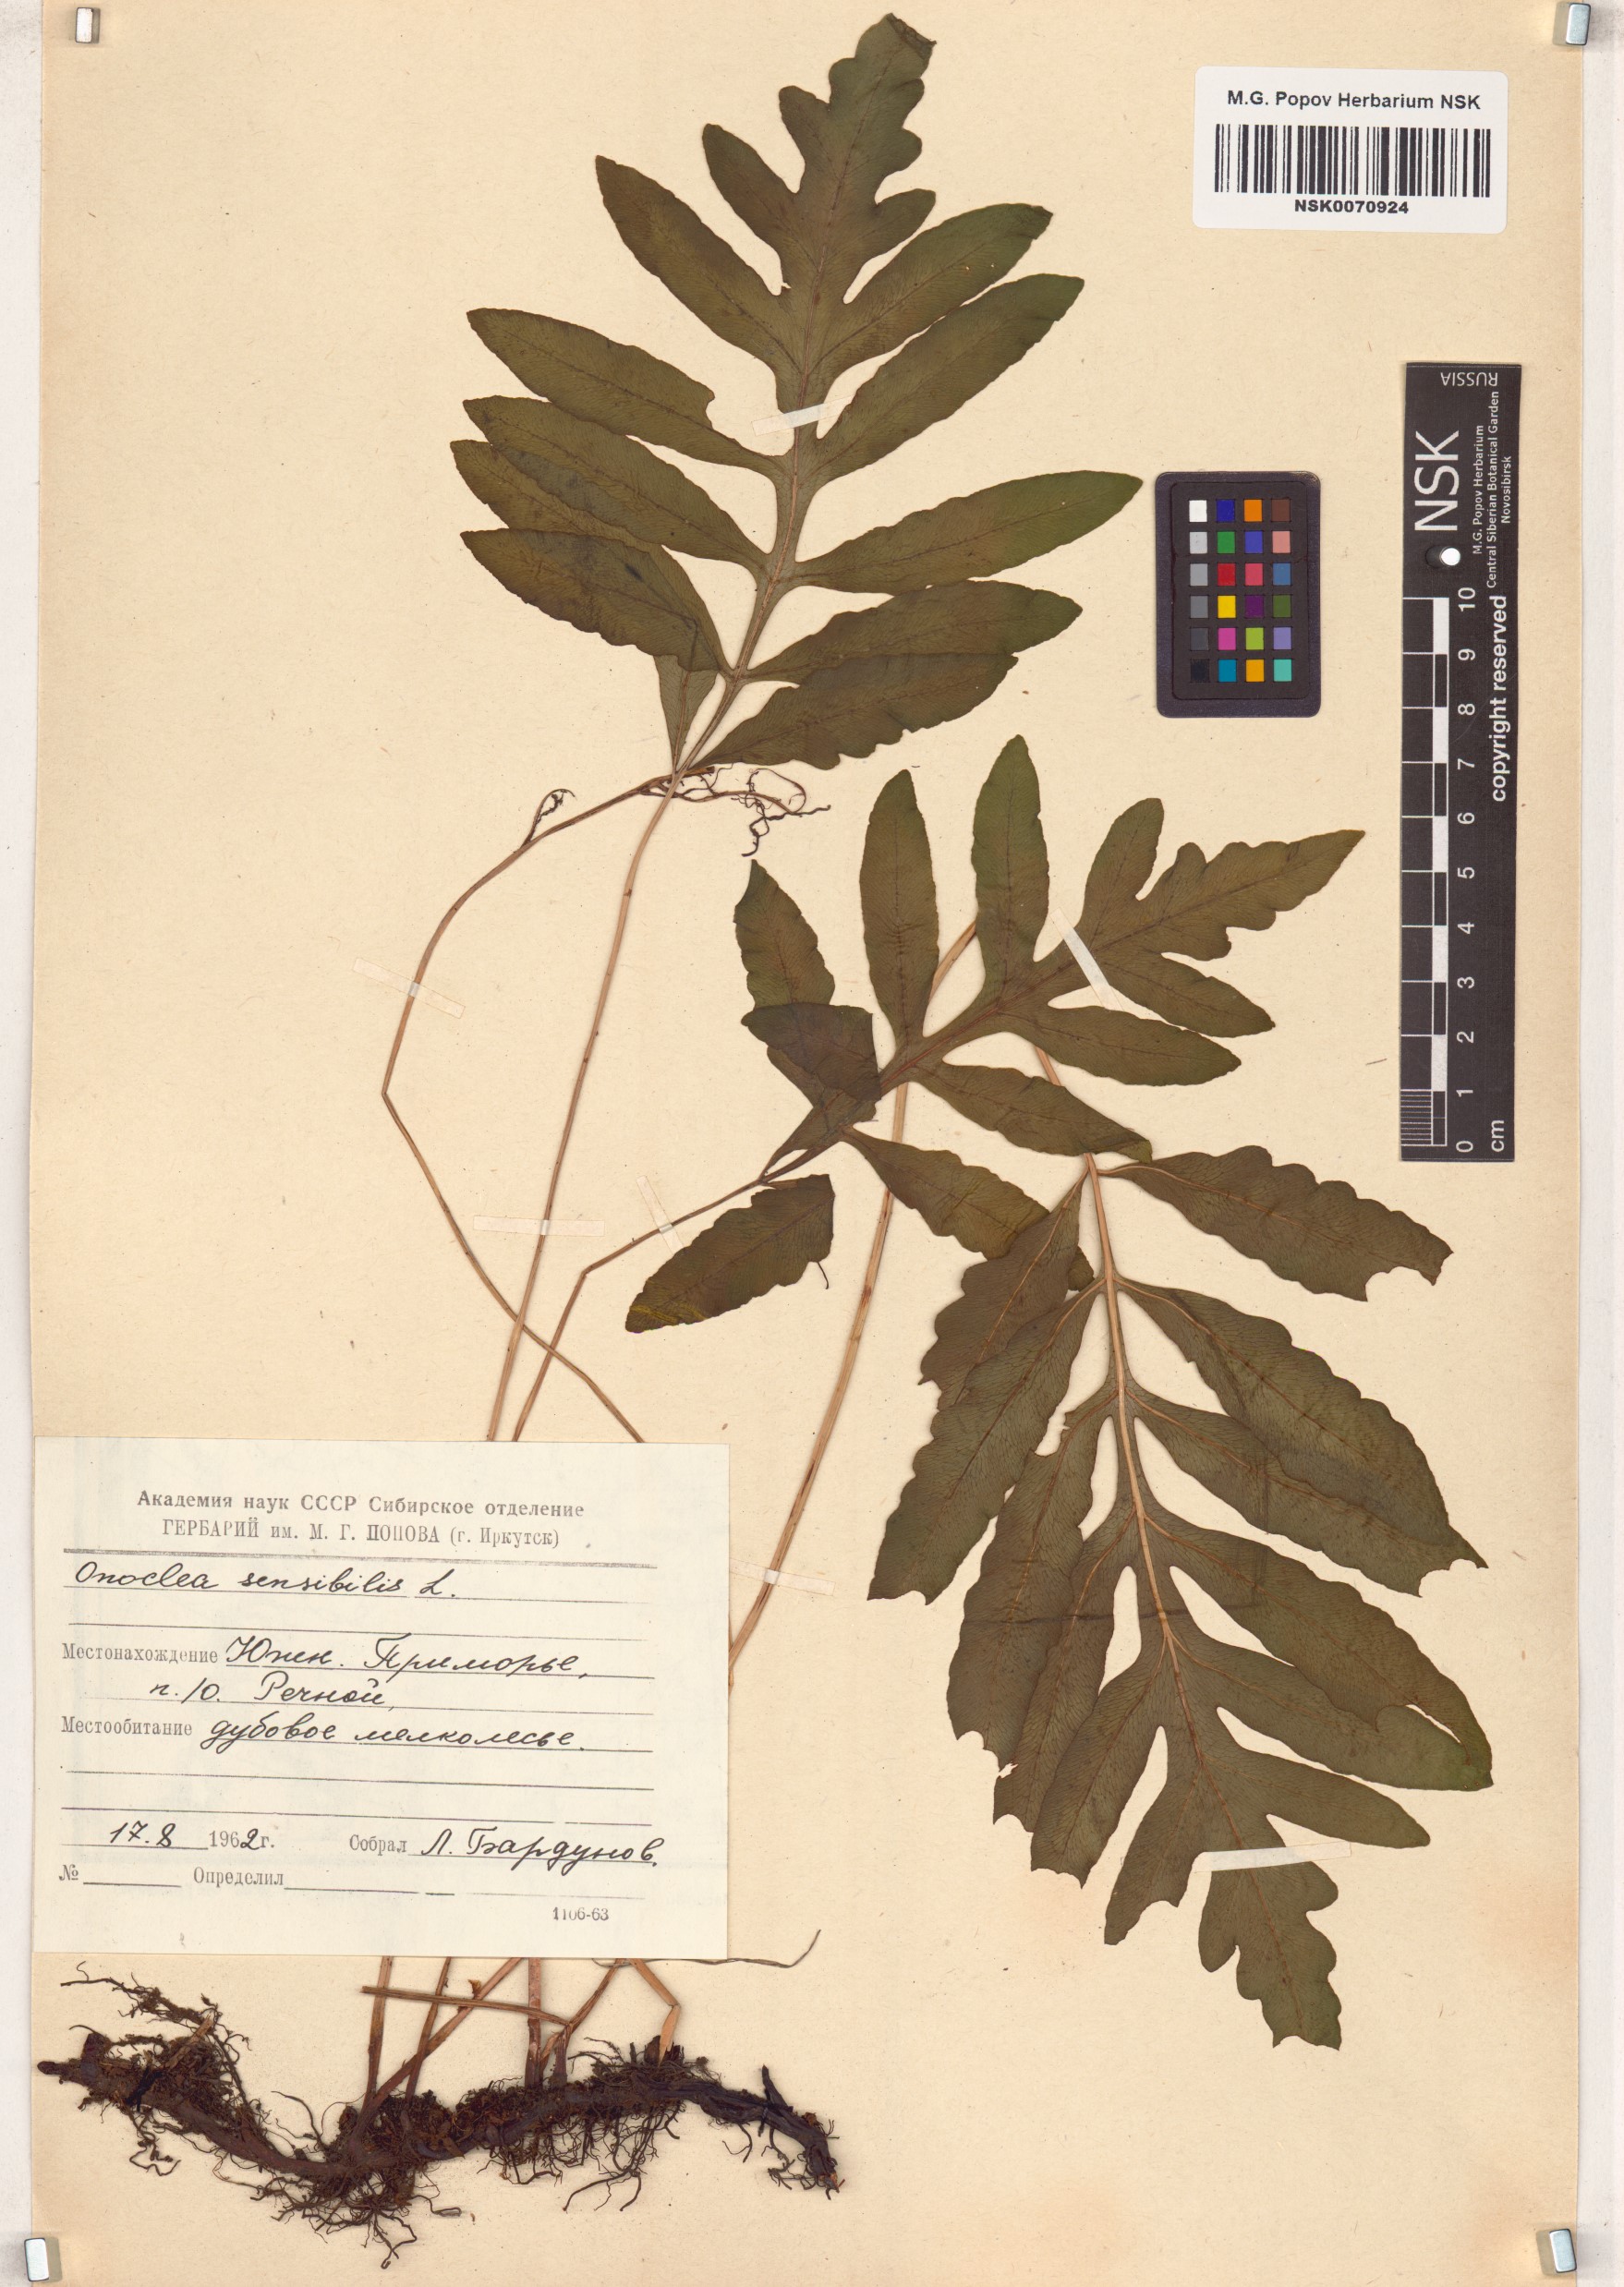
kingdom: Plantae
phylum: Tracheophyta
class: Polypodiopsida
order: Polypodiales
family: Onocleaceae
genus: Onoclea
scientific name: Onoclea sensibilis
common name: Sensitive fern
